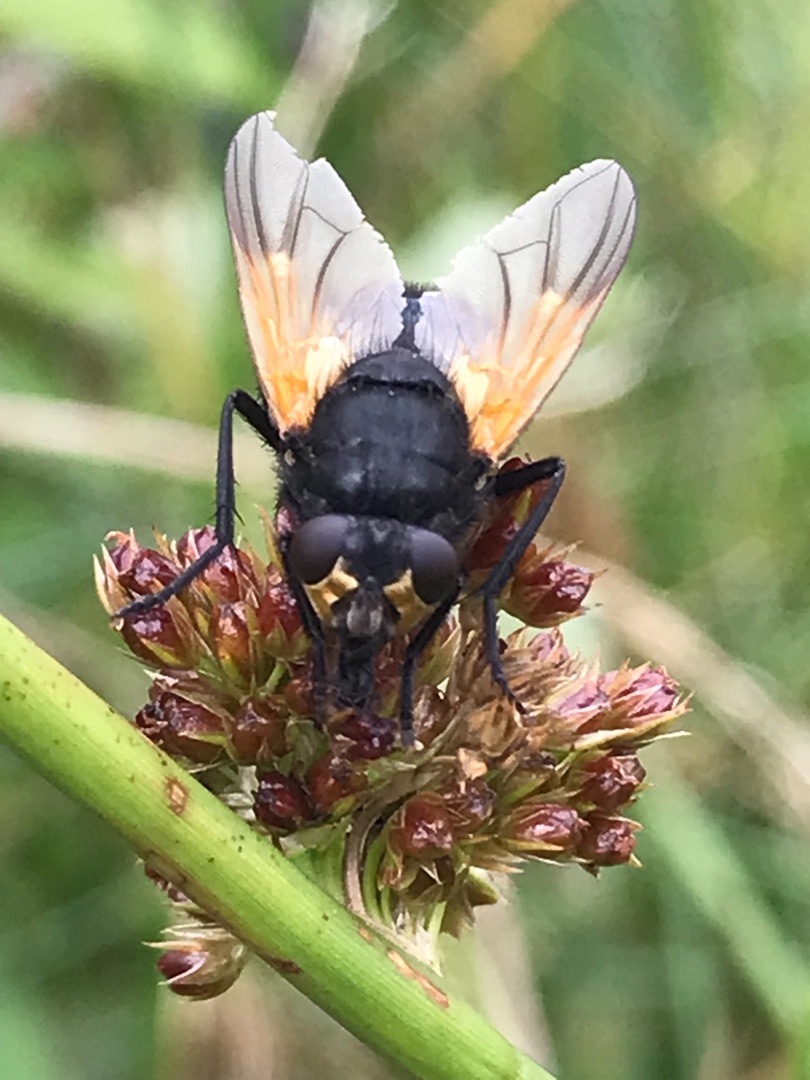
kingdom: Animalia
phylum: Arthropoda
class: Insecta
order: Diptera
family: Muscidae
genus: Mesembrina
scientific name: Mesembrina meridiana
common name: Gulvinget flue
